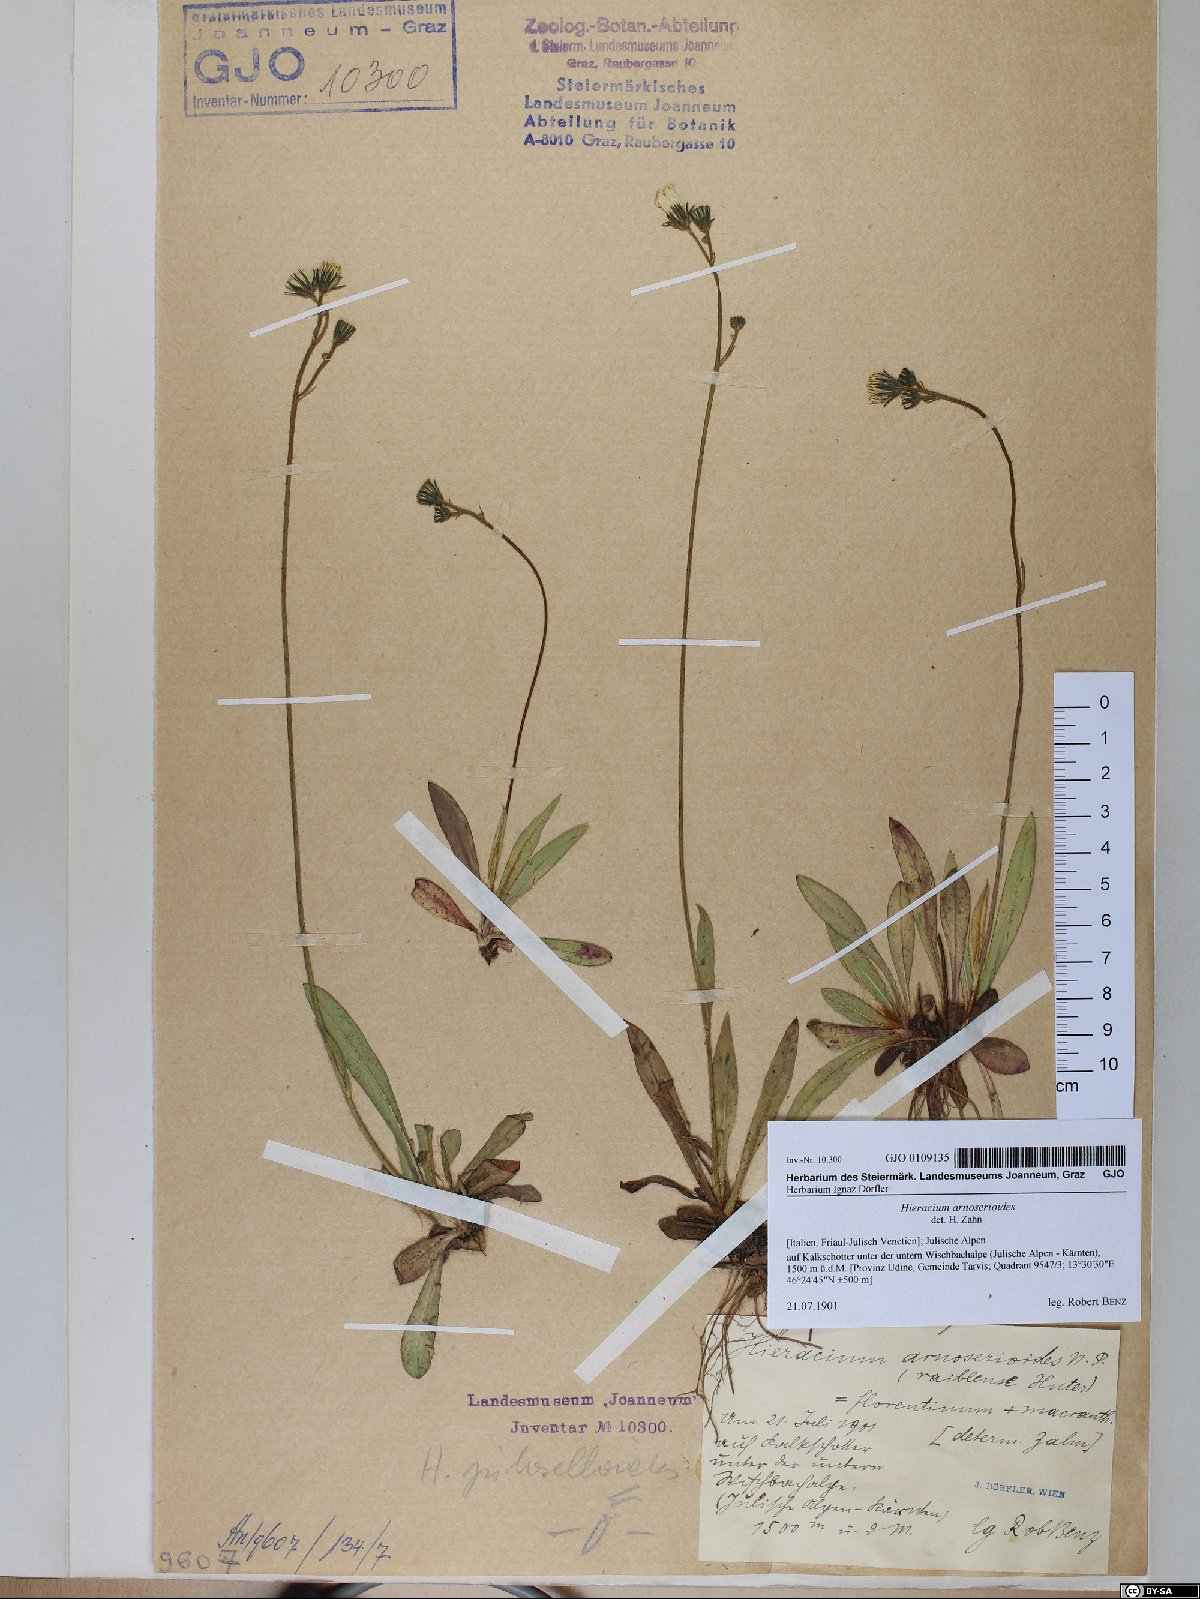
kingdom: Plantae
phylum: Tracheophyta
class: Magnoliopsida
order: Asterales
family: Asteraceae
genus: Pilosella
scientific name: Pilosella arnoserioides
